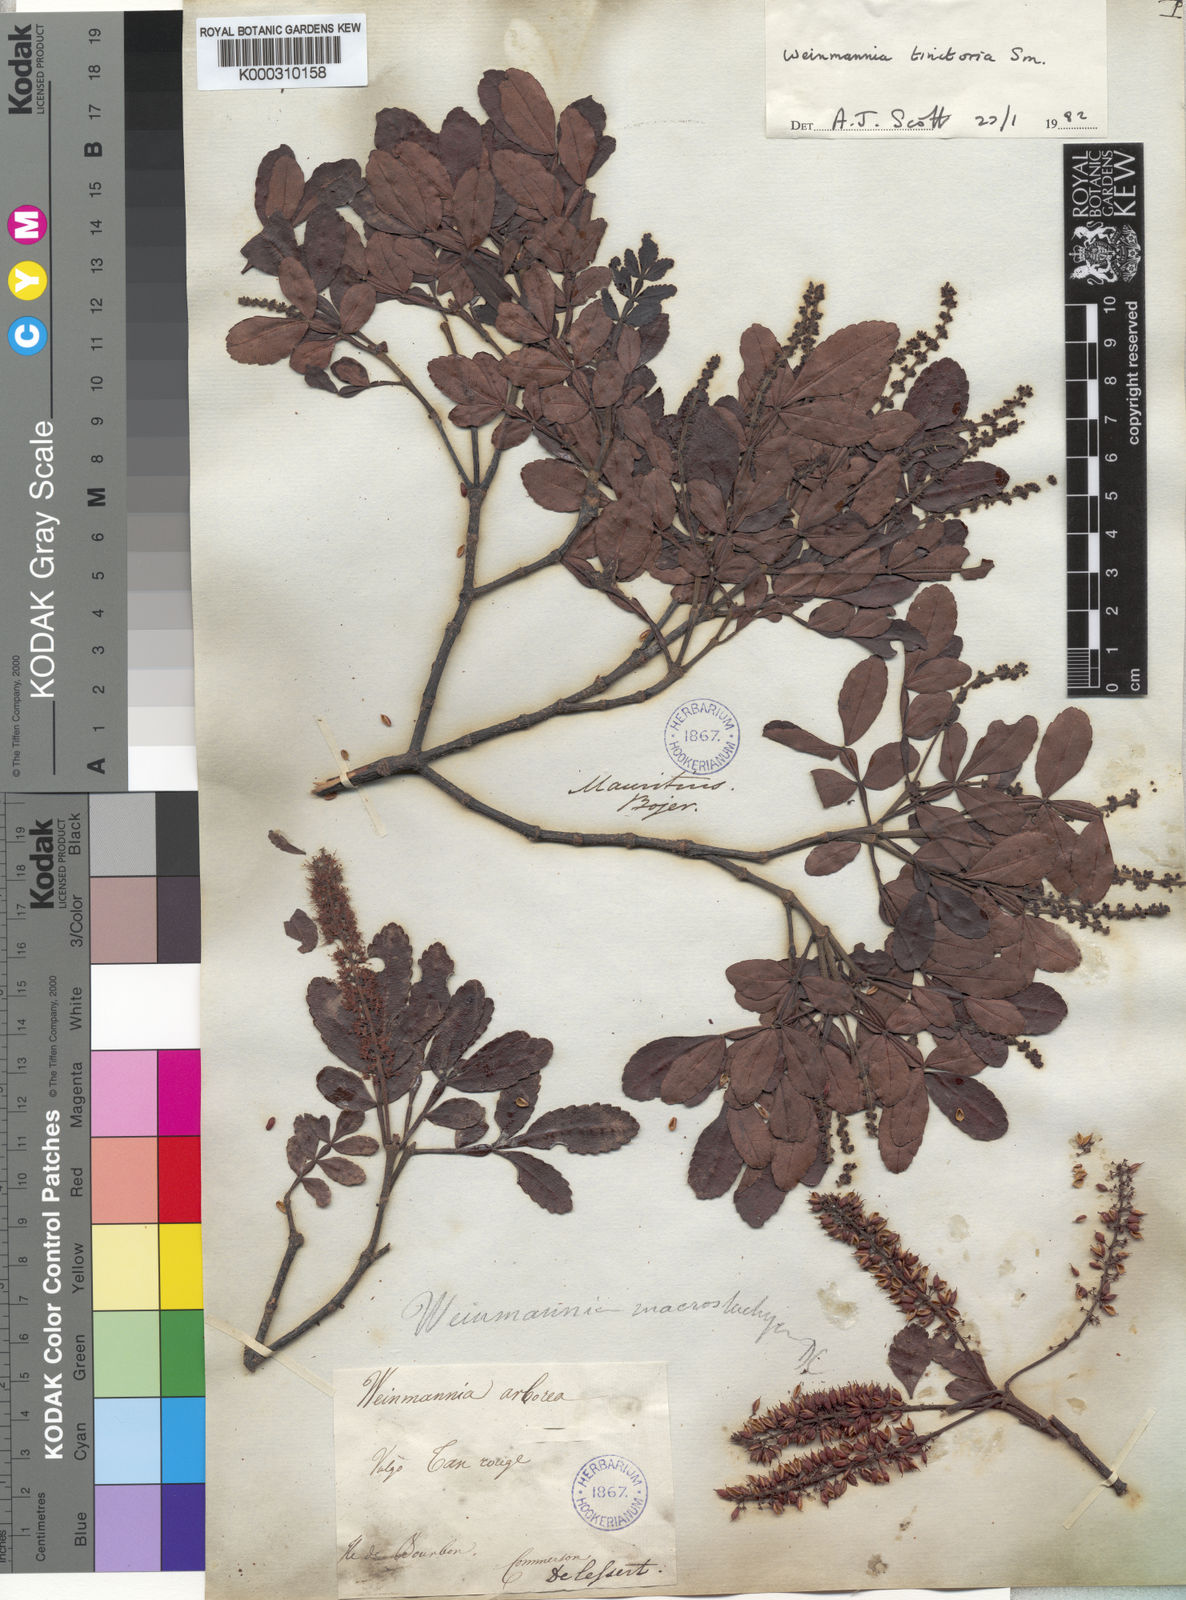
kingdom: Plantae
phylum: Tracheophyta
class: Magnoliopsida
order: Oxalidales
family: Cunoniaceae
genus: Weinmannia
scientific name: Weinmannia tinctoria
